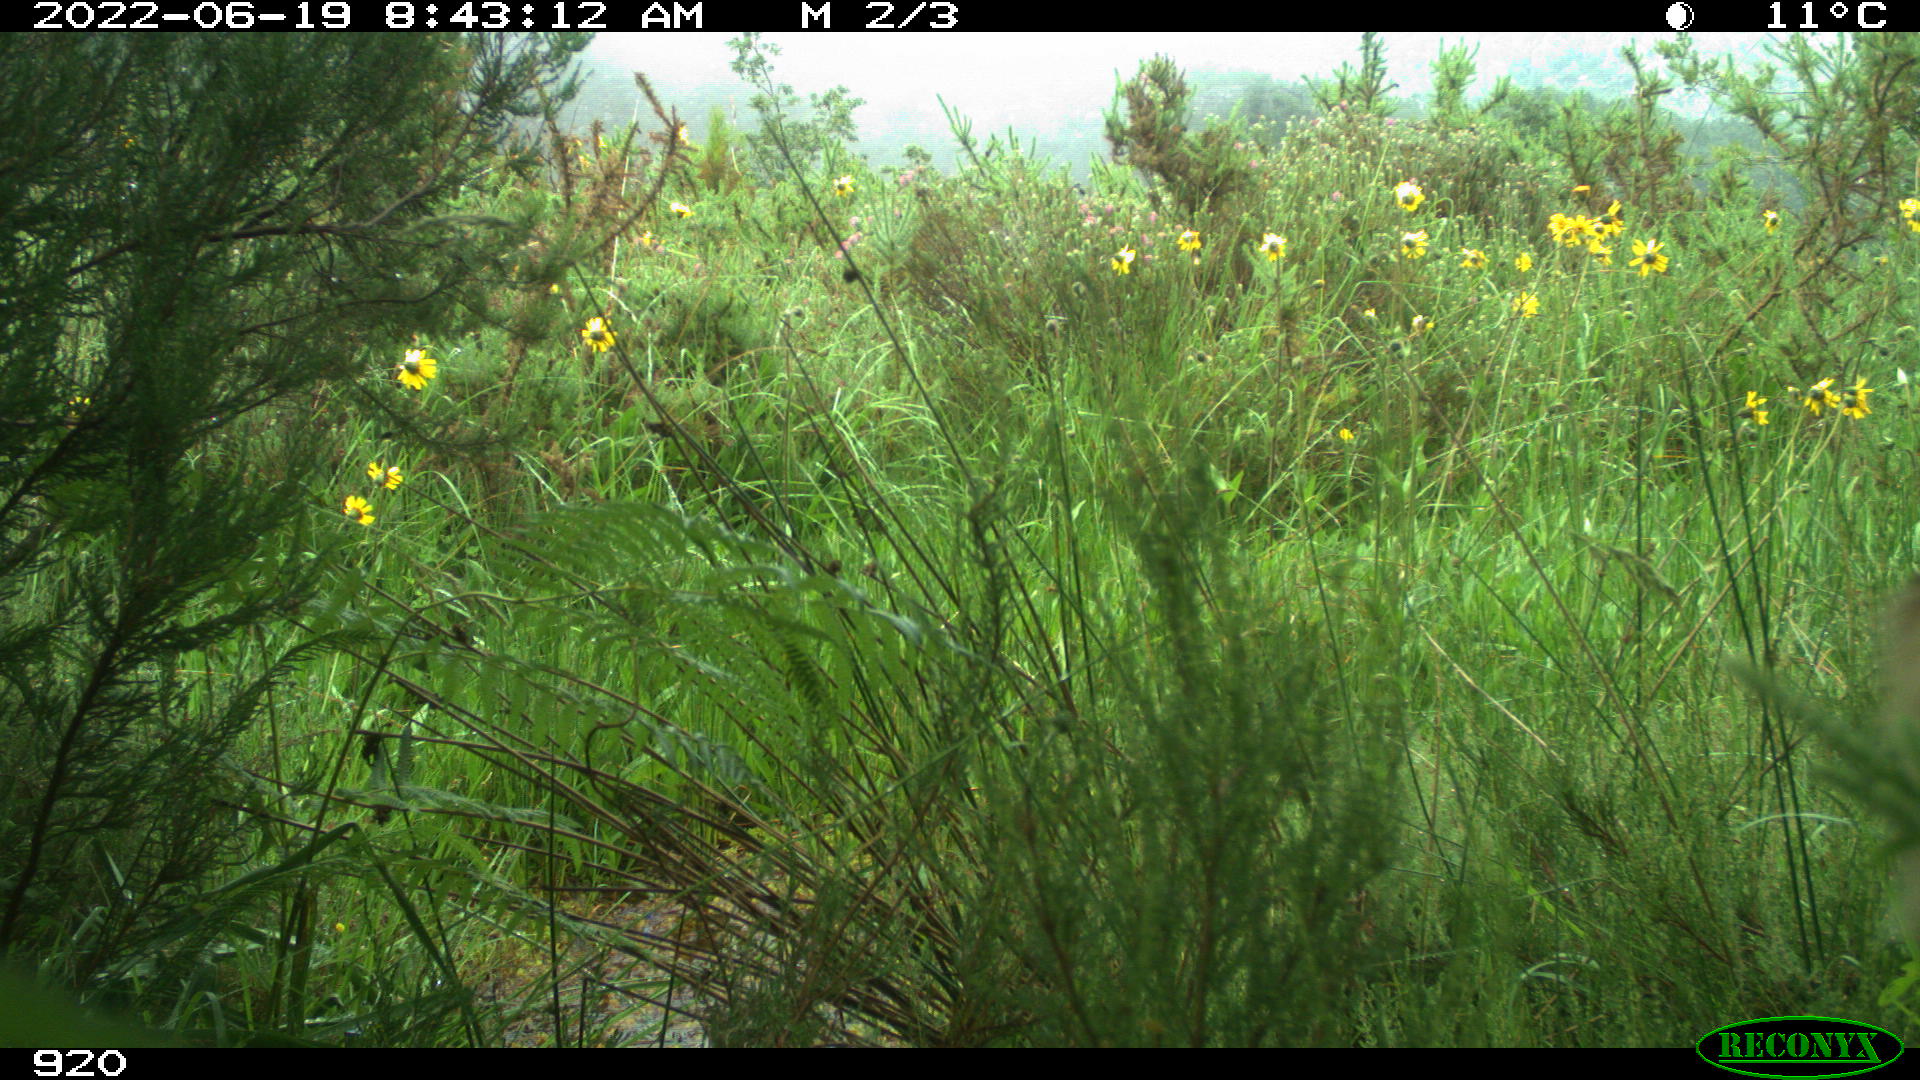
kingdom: Animalia
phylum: Chordata
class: Mammalia
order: Artiodactyla
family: Cervidae
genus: Capreolus
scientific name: Capreolus capreolus
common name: Western roe deer
